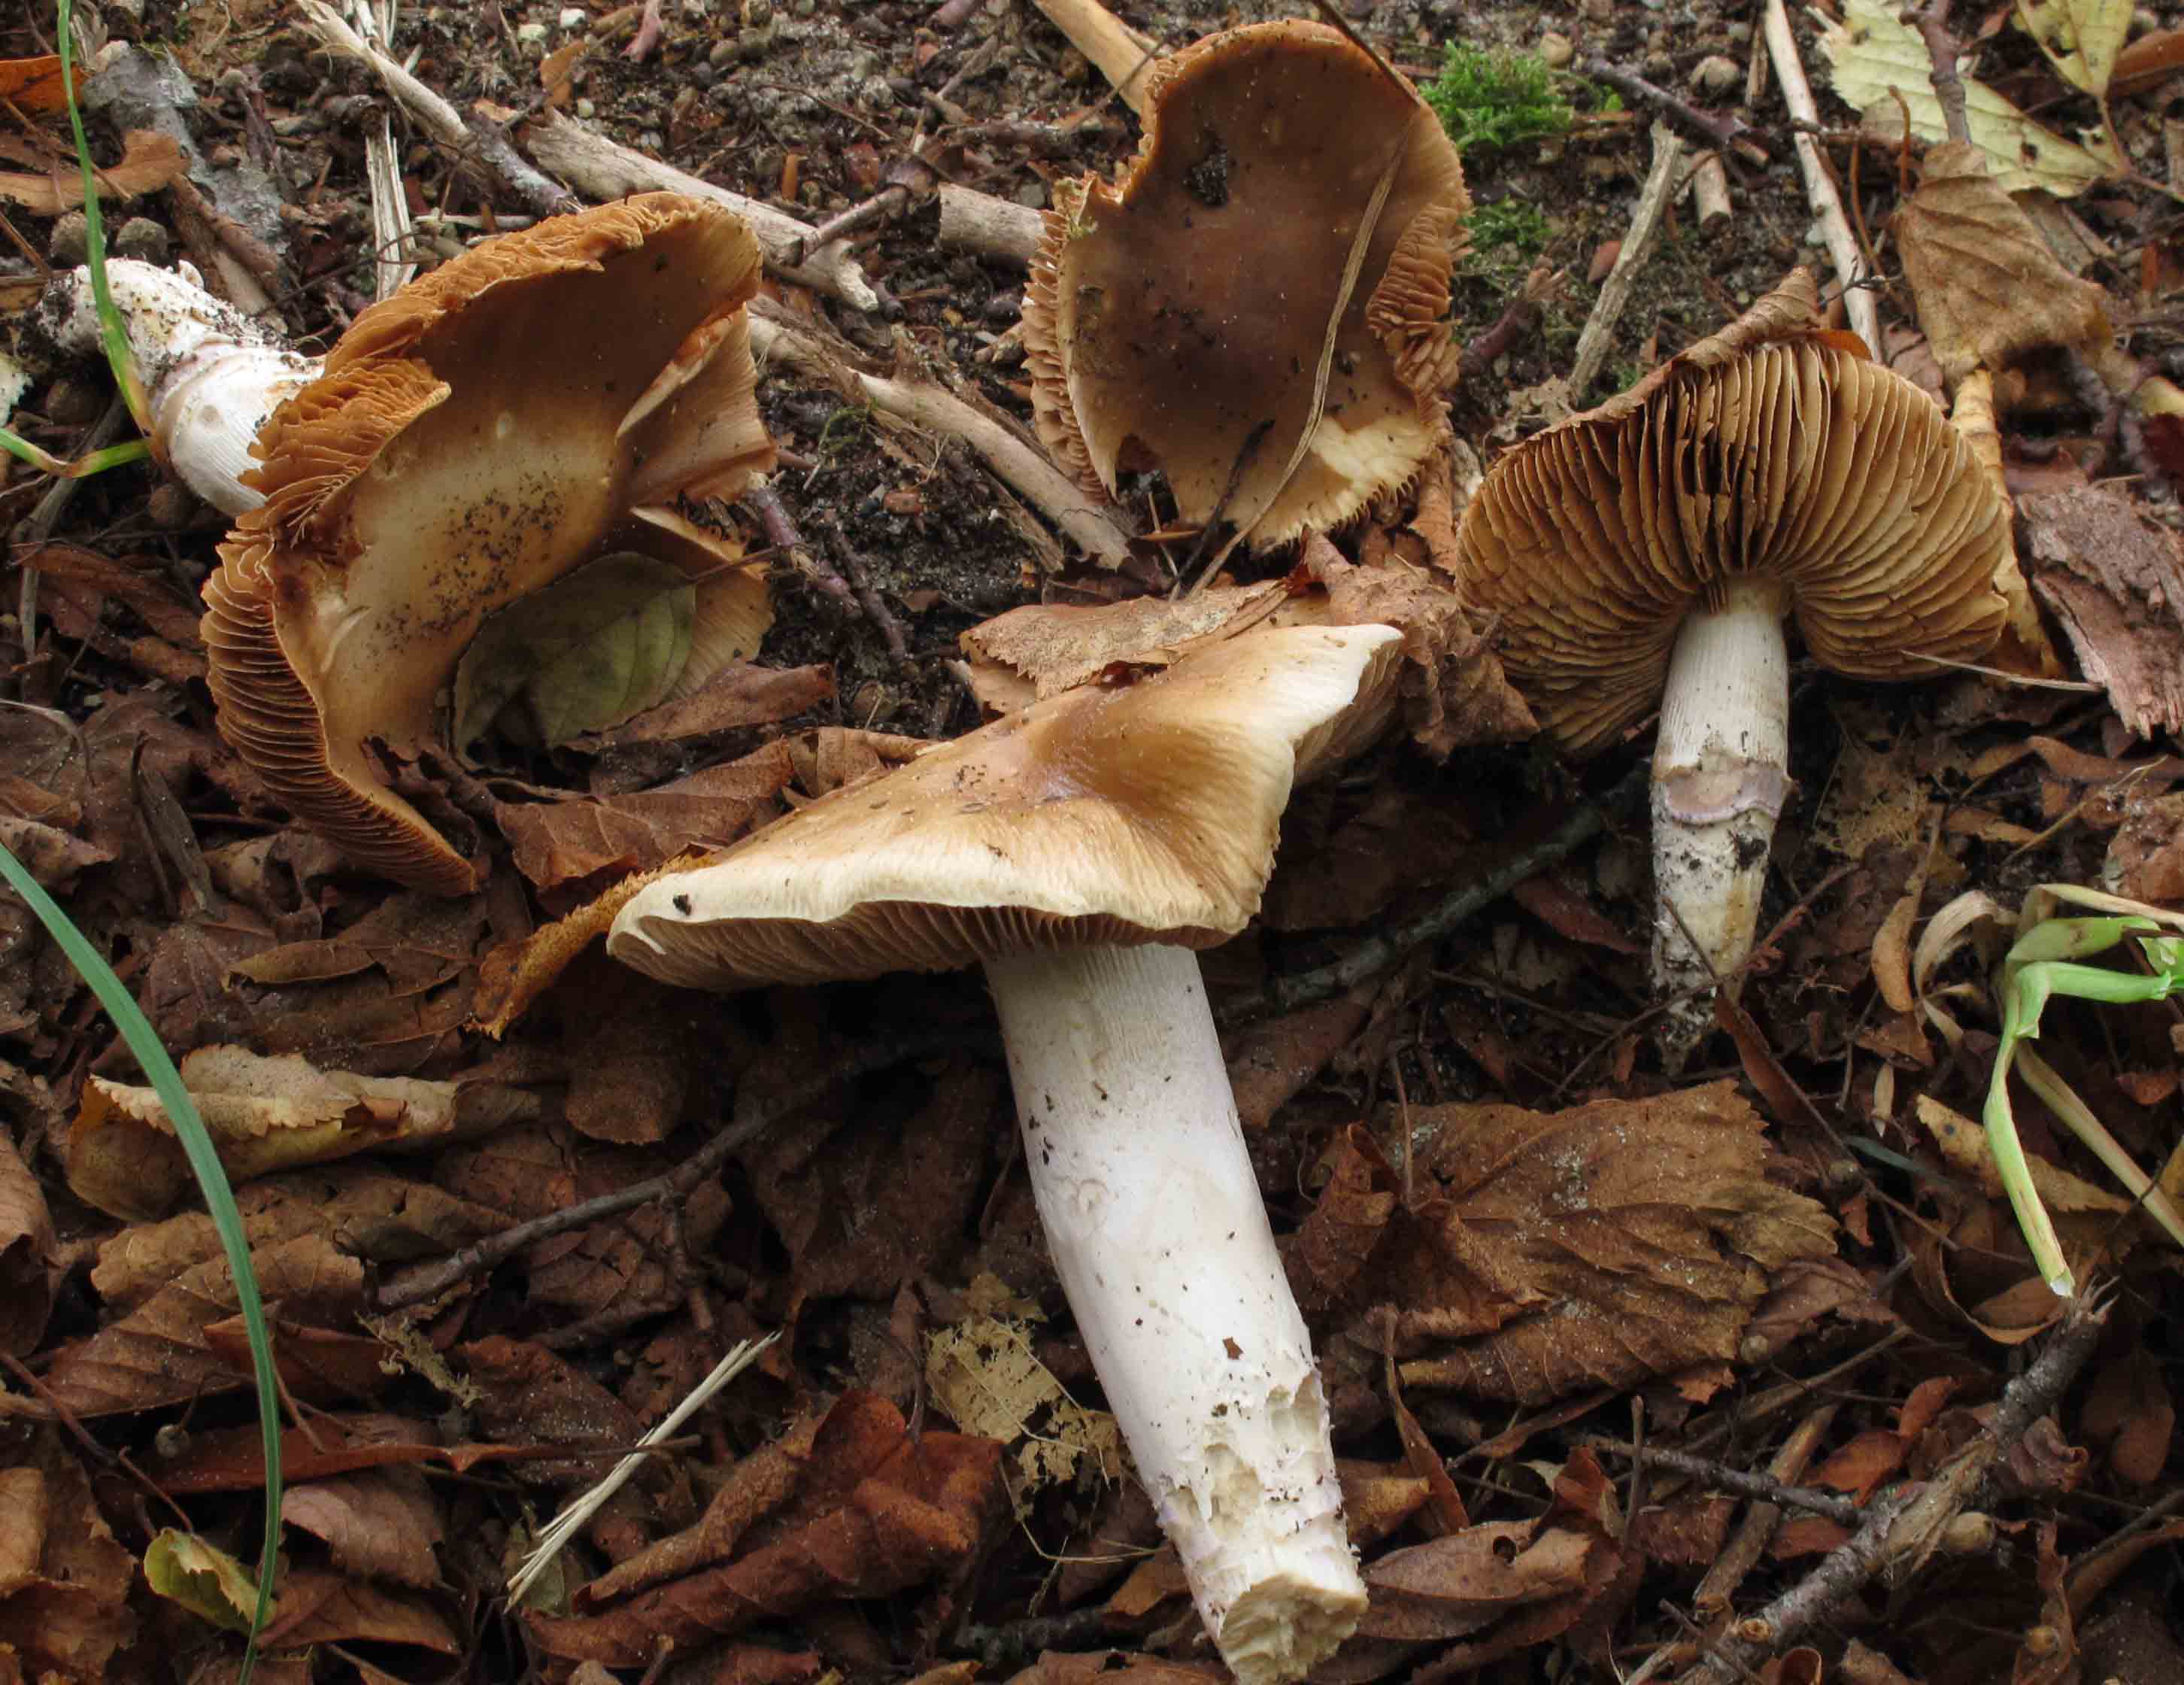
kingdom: Fungi
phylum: Basidiomycota
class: Agaricomycetes
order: Agaricales
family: Cortinariaceae
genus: Cortinarius
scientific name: Cortinarius elatior
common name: høj slørhat
